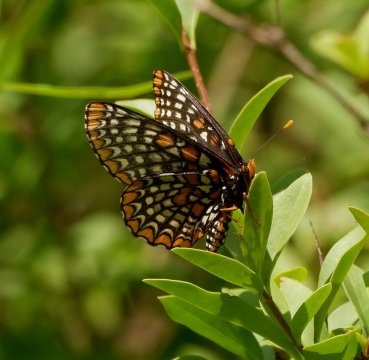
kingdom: Animalia
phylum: Arthropoda
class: Insecta
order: Lepidoptera
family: Nymphalidae
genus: Euphydryas
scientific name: Euphydryas phaeton
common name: Baltimore Checkerspot
